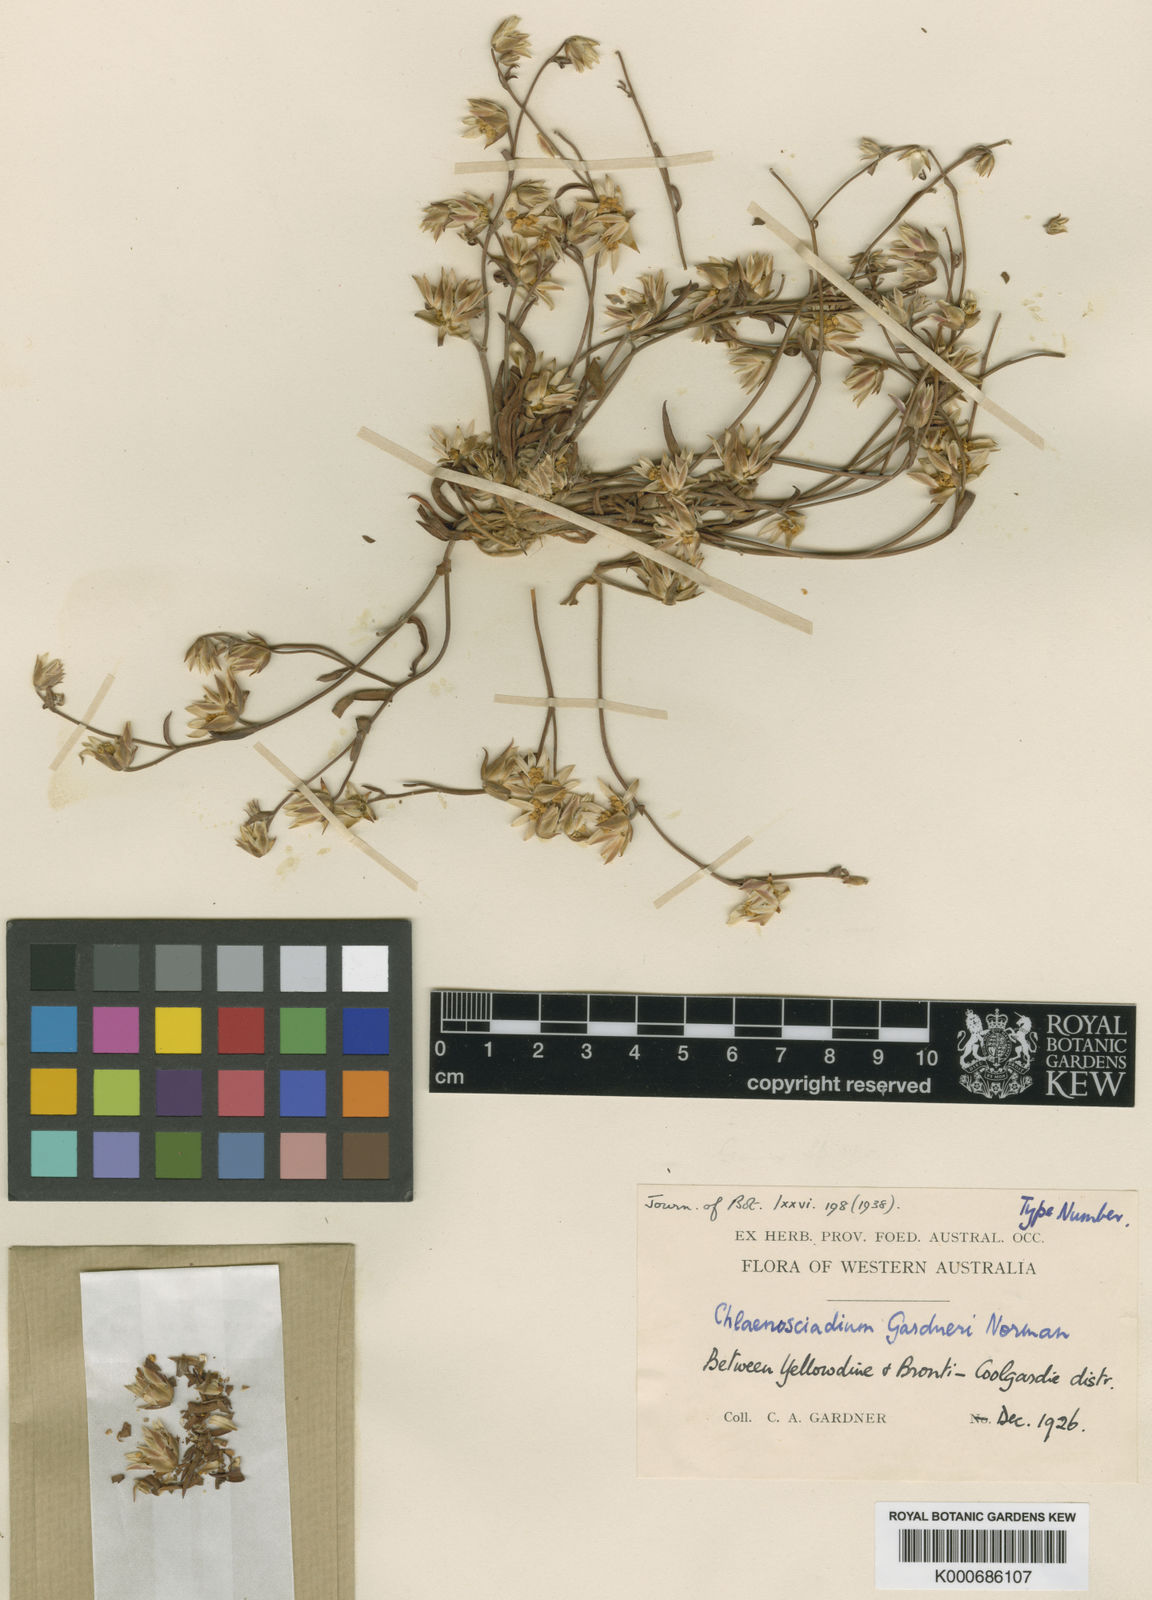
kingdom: Plantae
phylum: Tracheophyta
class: Magnoliopsida
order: Apiales
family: Apiaceae
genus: Chlaenosciadium
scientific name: Chlaenosciadium gardneri
